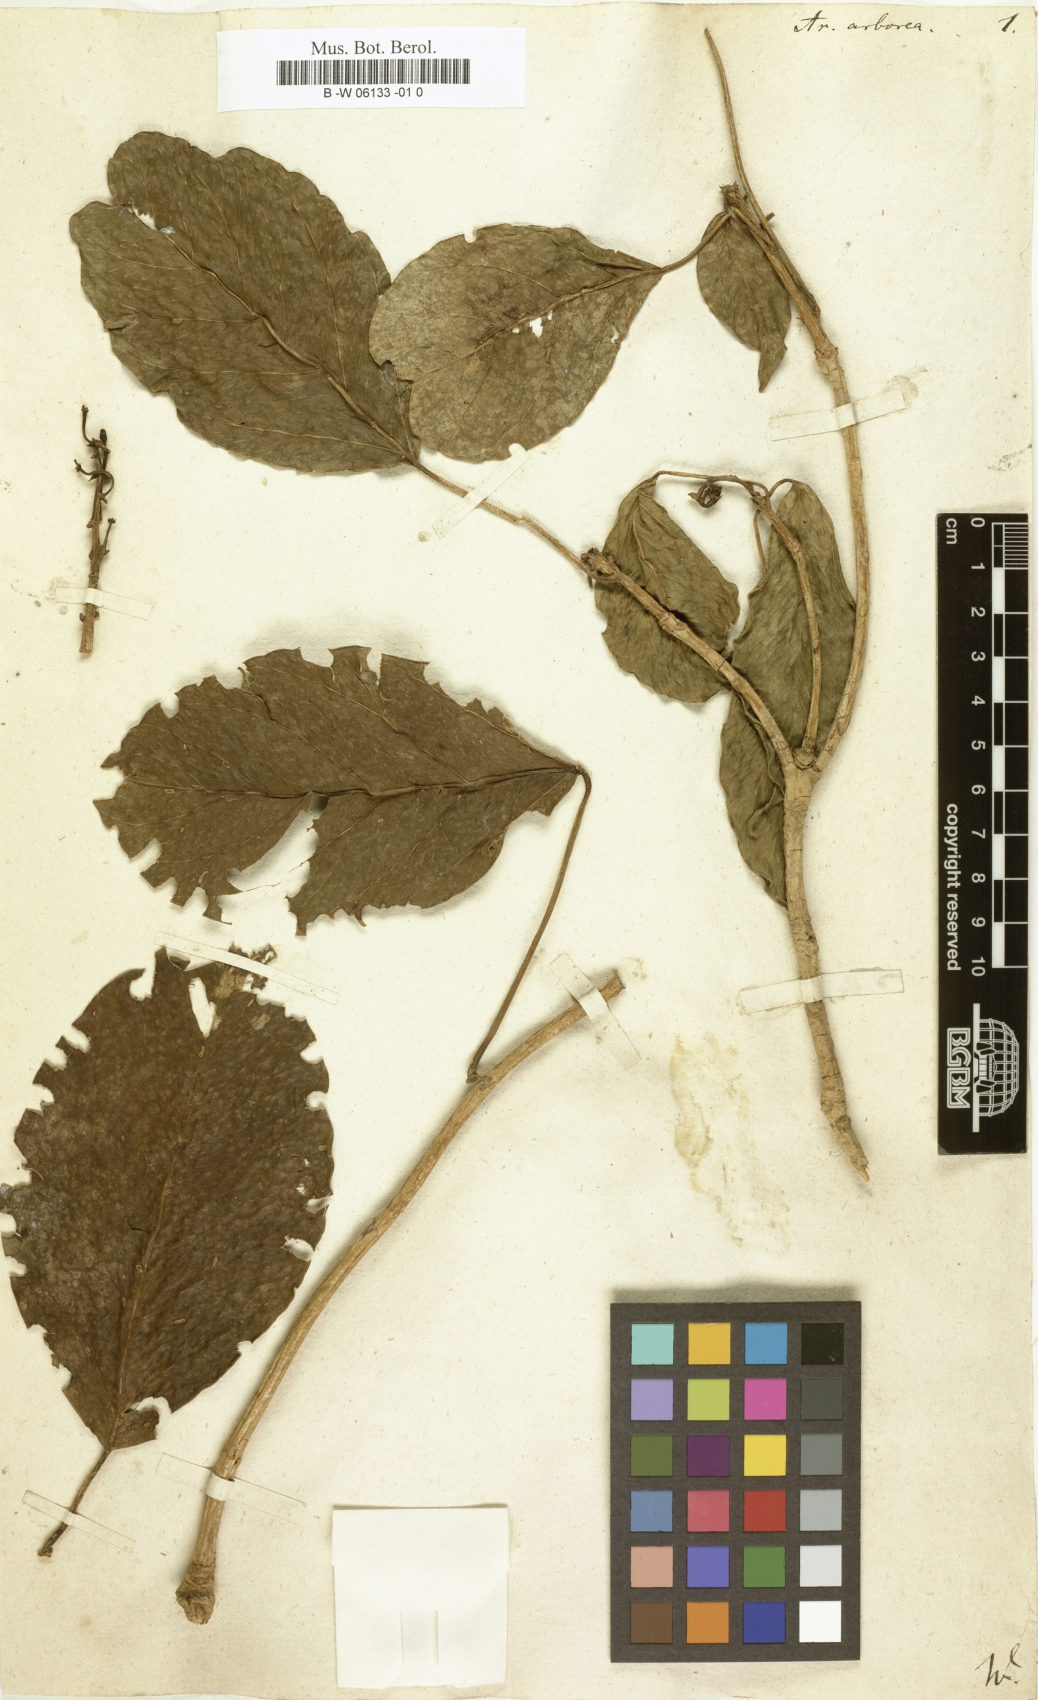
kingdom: Plantae
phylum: Tracheophyta
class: Magnoliopsida
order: Apiales
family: Araliaceae
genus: Dendropanax
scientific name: Dendropanax arboreus
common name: Potato-wood
